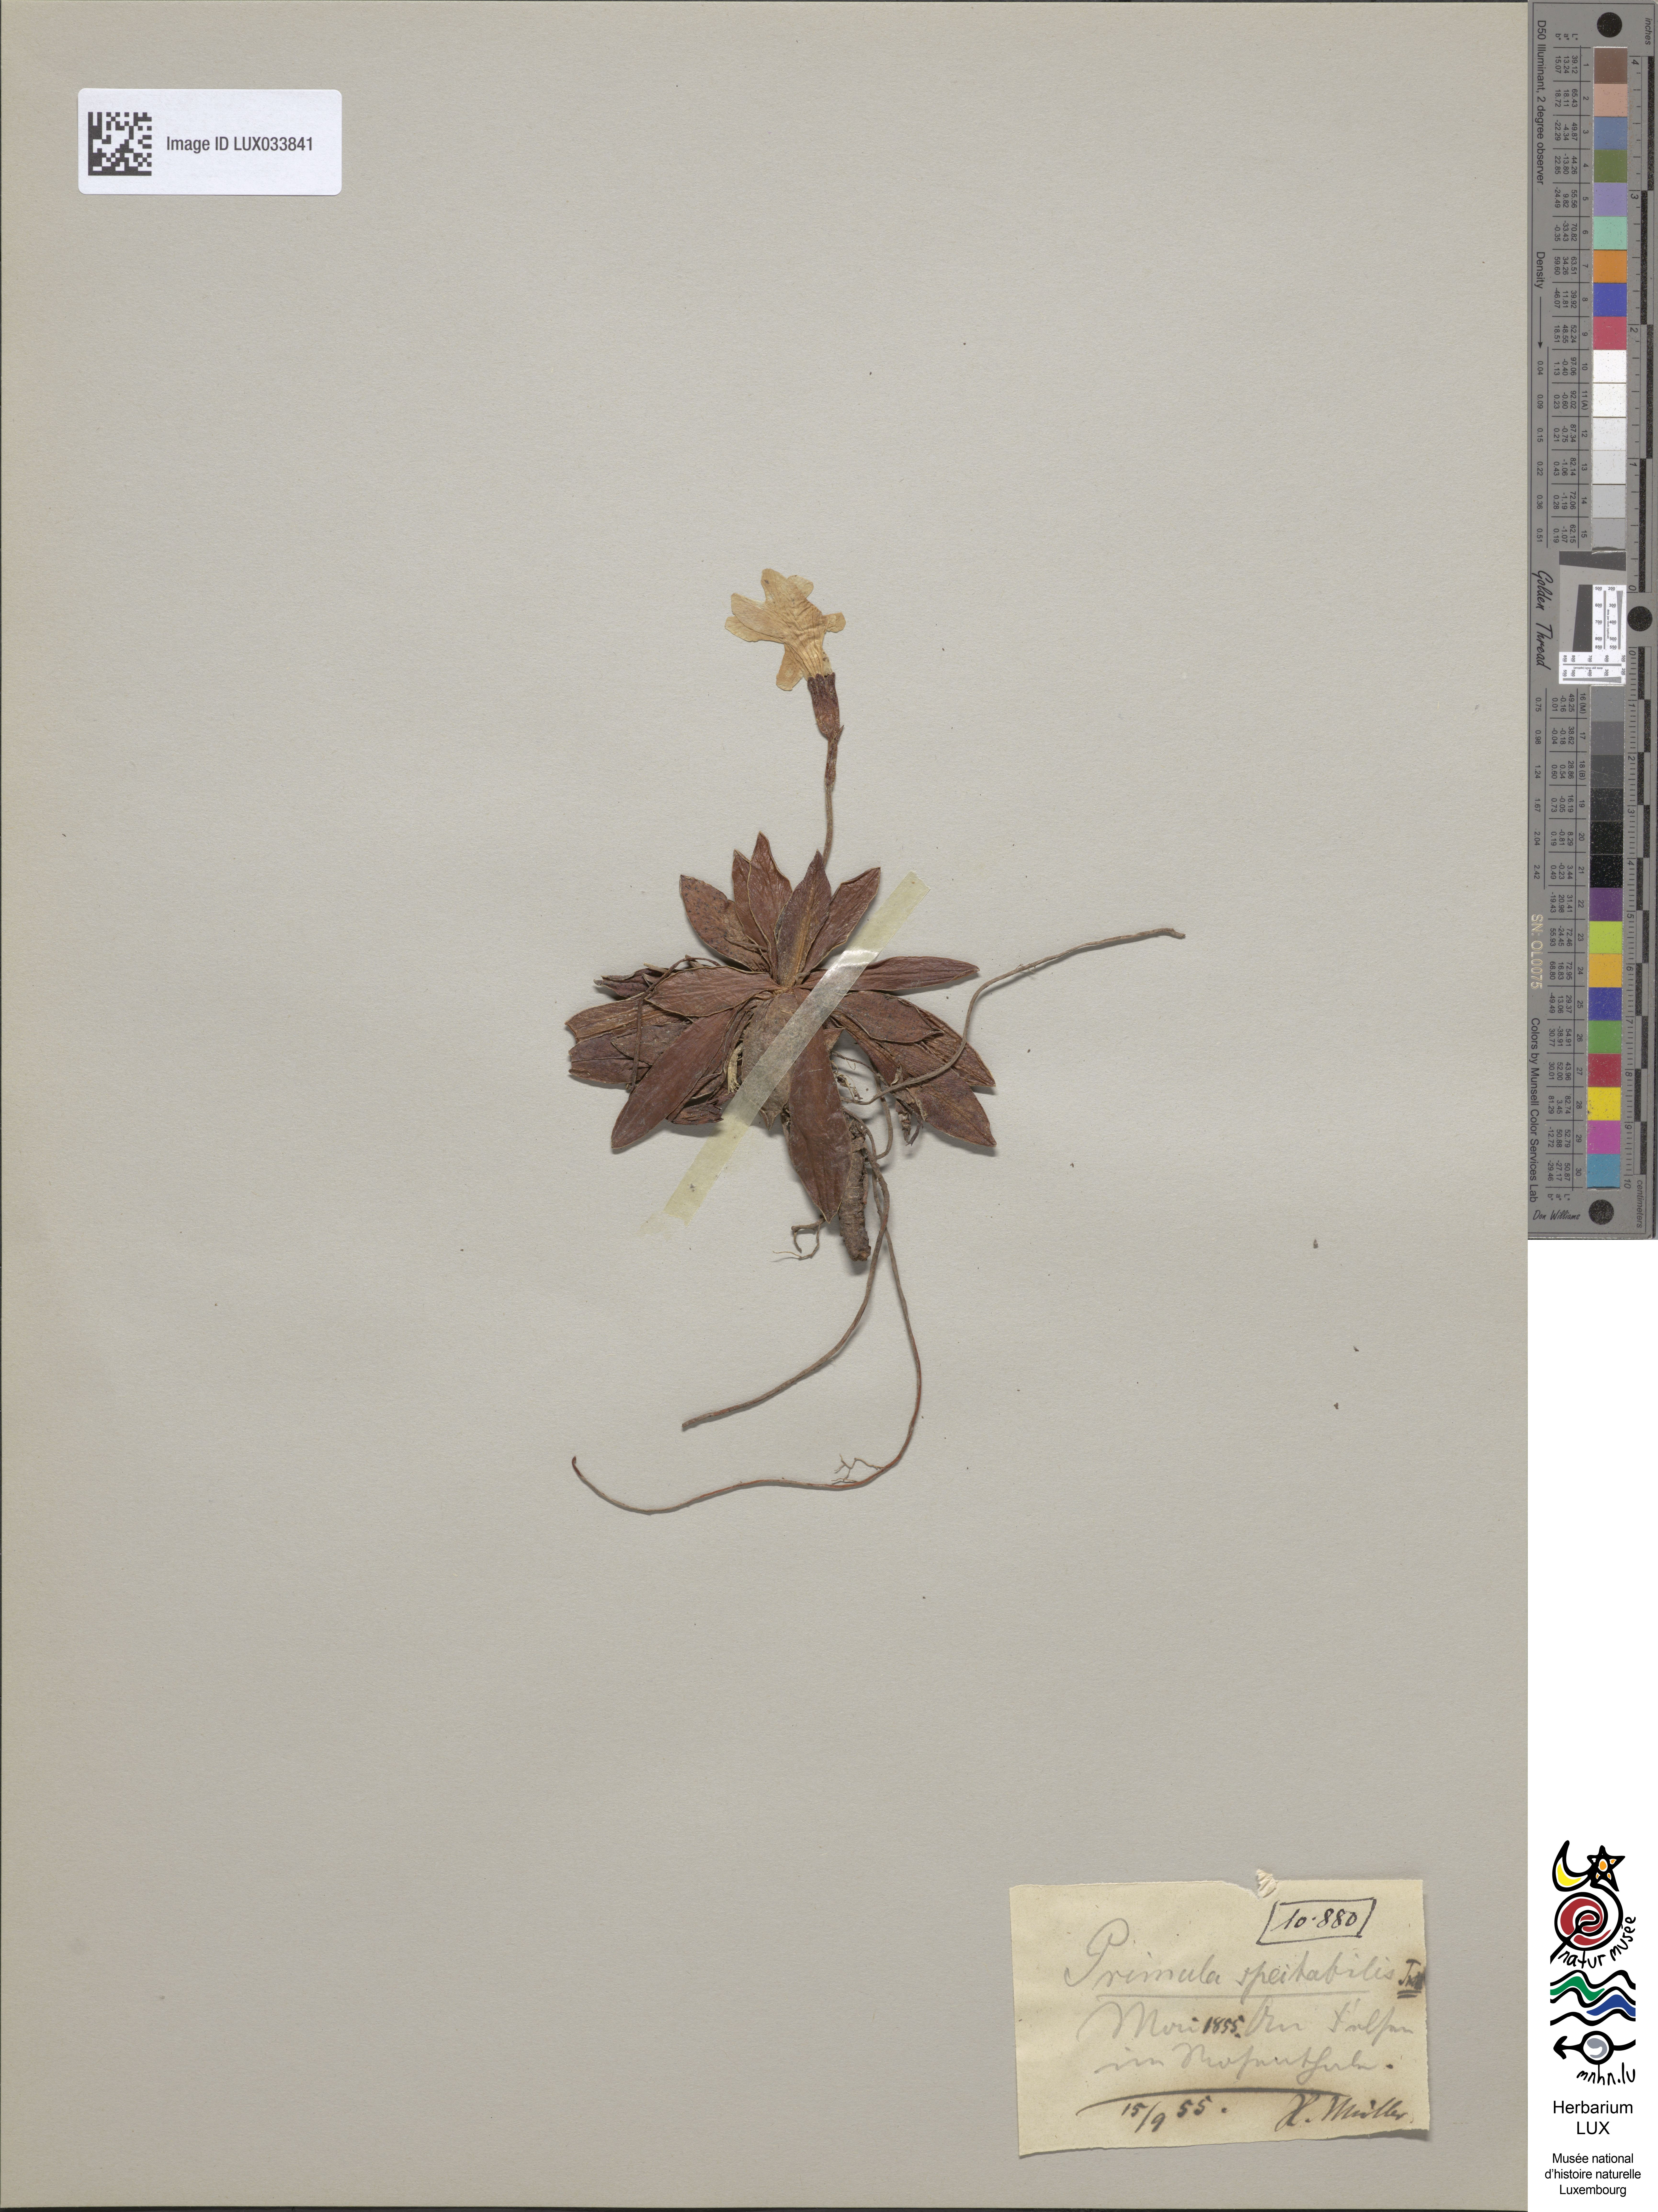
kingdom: Plantae
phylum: Tracheophyta
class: Magnoliopsida
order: Ericales
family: Primulaceae
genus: Primula
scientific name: Primula spectabilis
